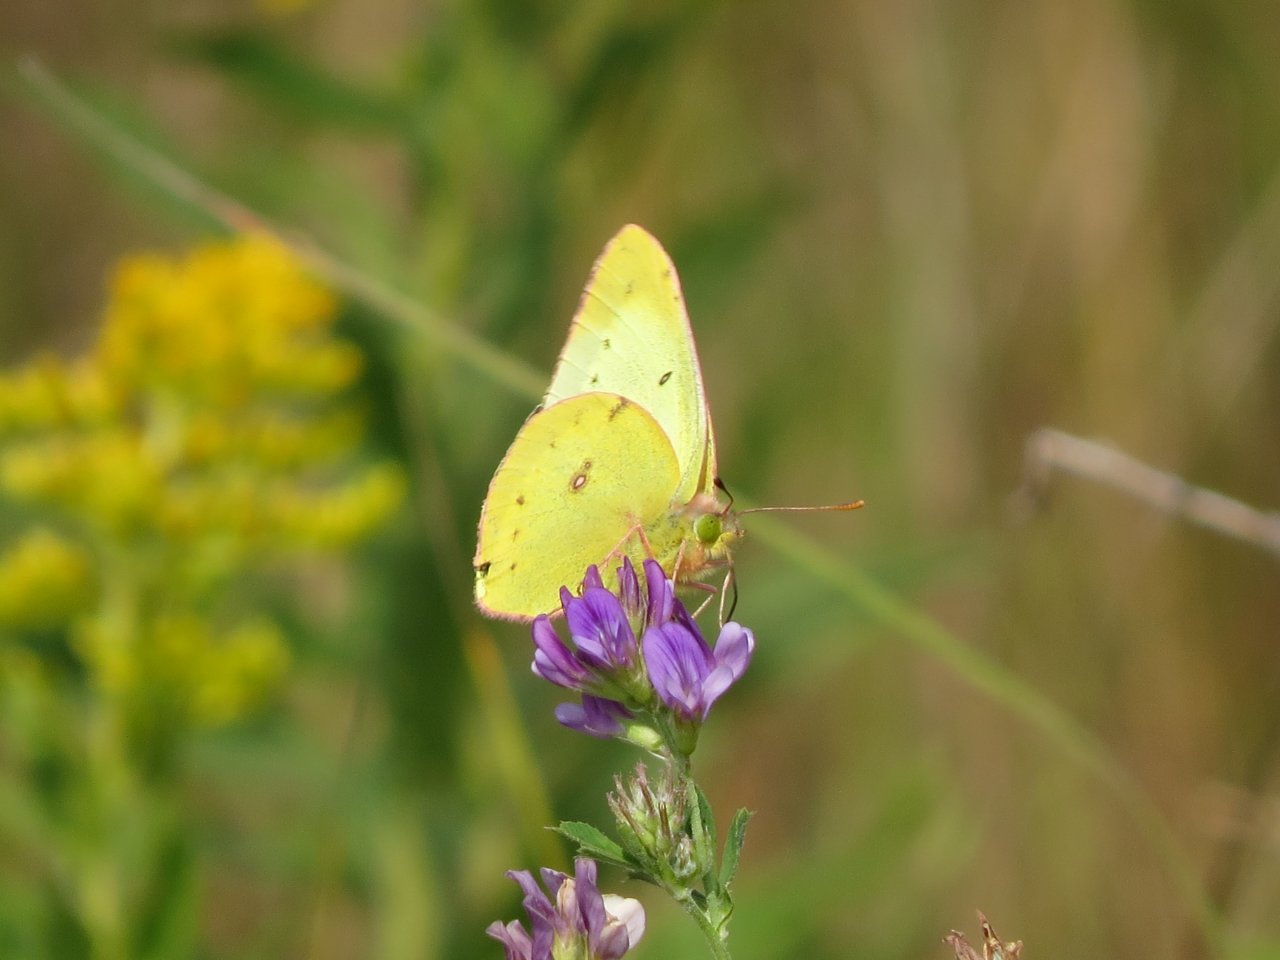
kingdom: Animalia
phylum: Arthropoda
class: Insecta
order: Lepidoptera
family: Pieridae
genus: Colias
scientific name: Colias philodice
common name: Clouded Sulphur
